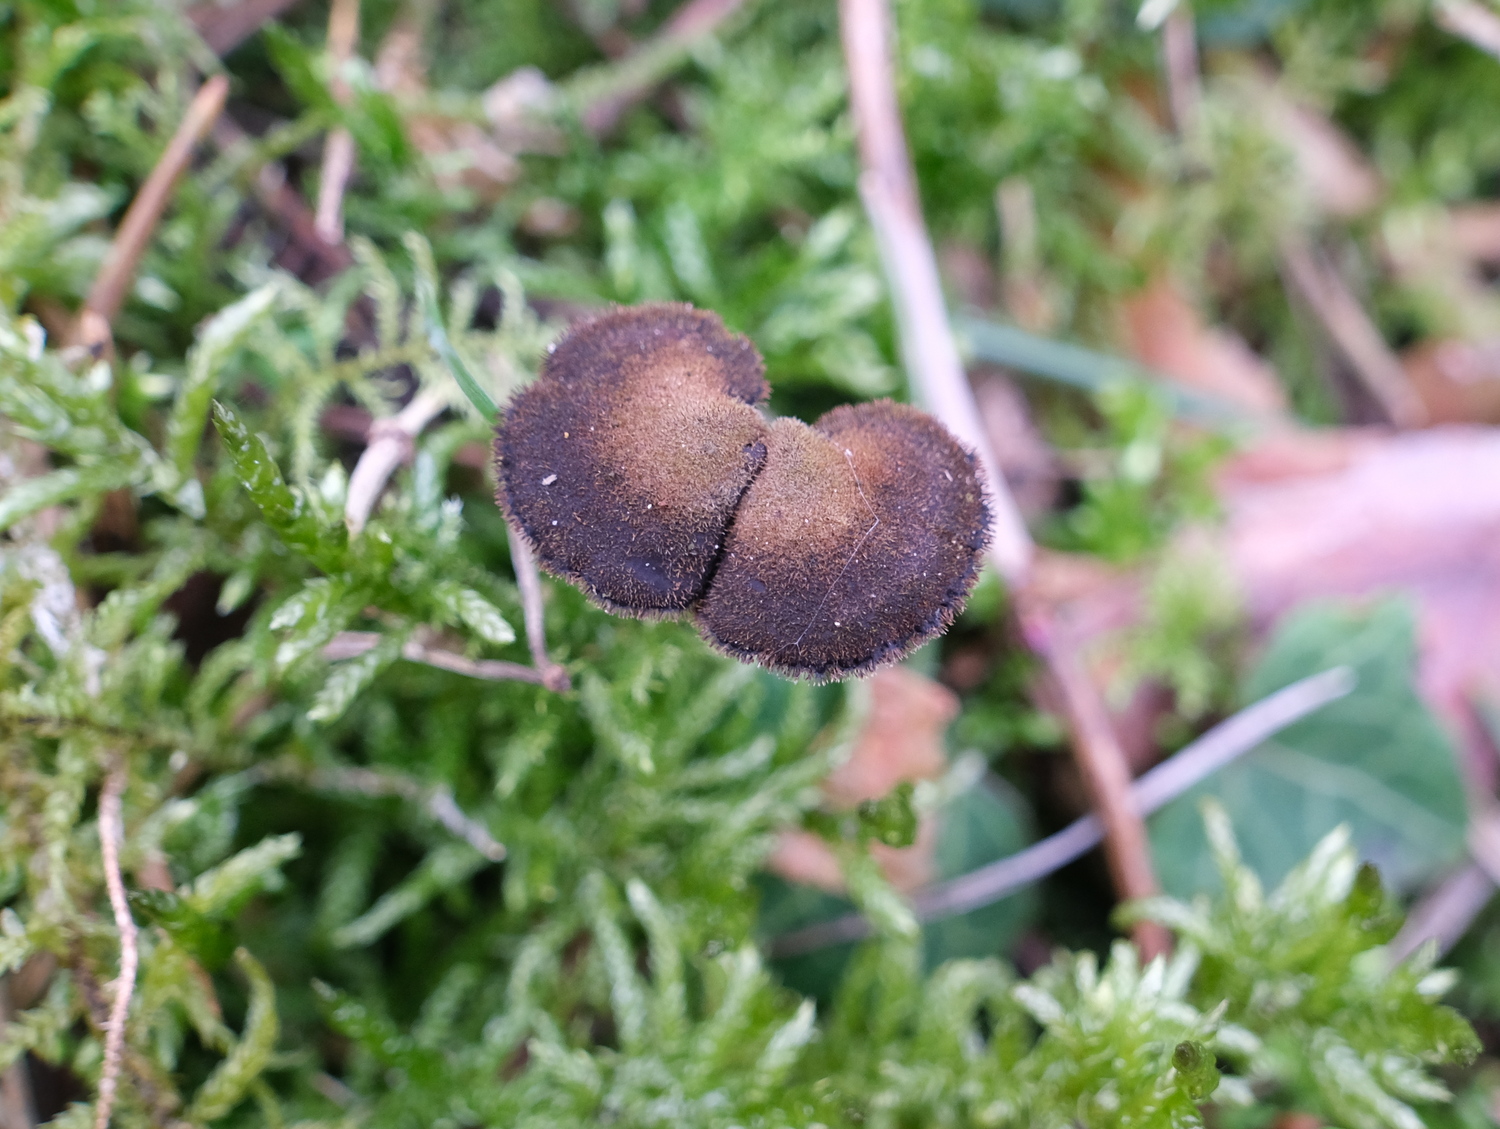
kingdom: Fungi
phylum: Basidiomycota
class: Agaricomycetes
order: Russulales
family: Auriscalpiaceae
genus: Auriscalpium
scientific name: Auriscalpium vulgare
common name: koglepigsvamp
